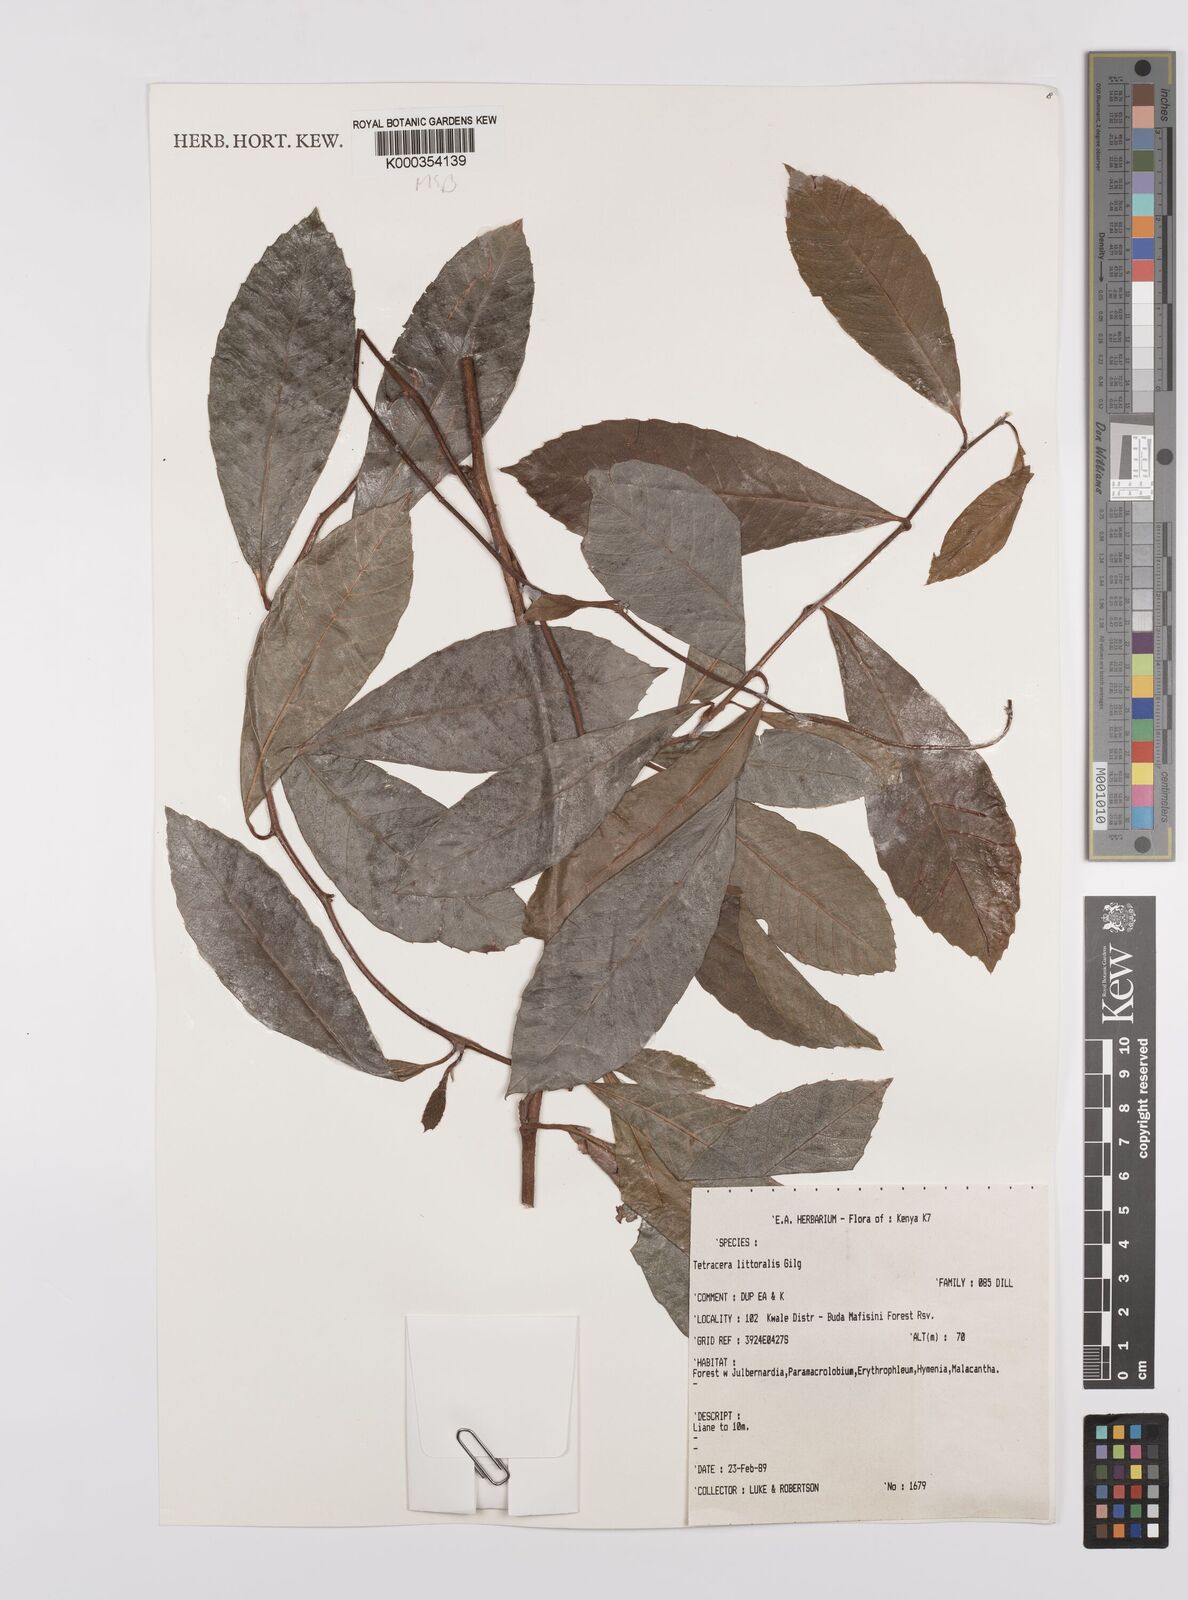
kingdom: Plantae
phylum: Tracheophyta
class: Magnoliopsida
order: Dilleniales
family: Dilleniaceae
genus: Tetracera
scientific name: Tetracera litoralis
